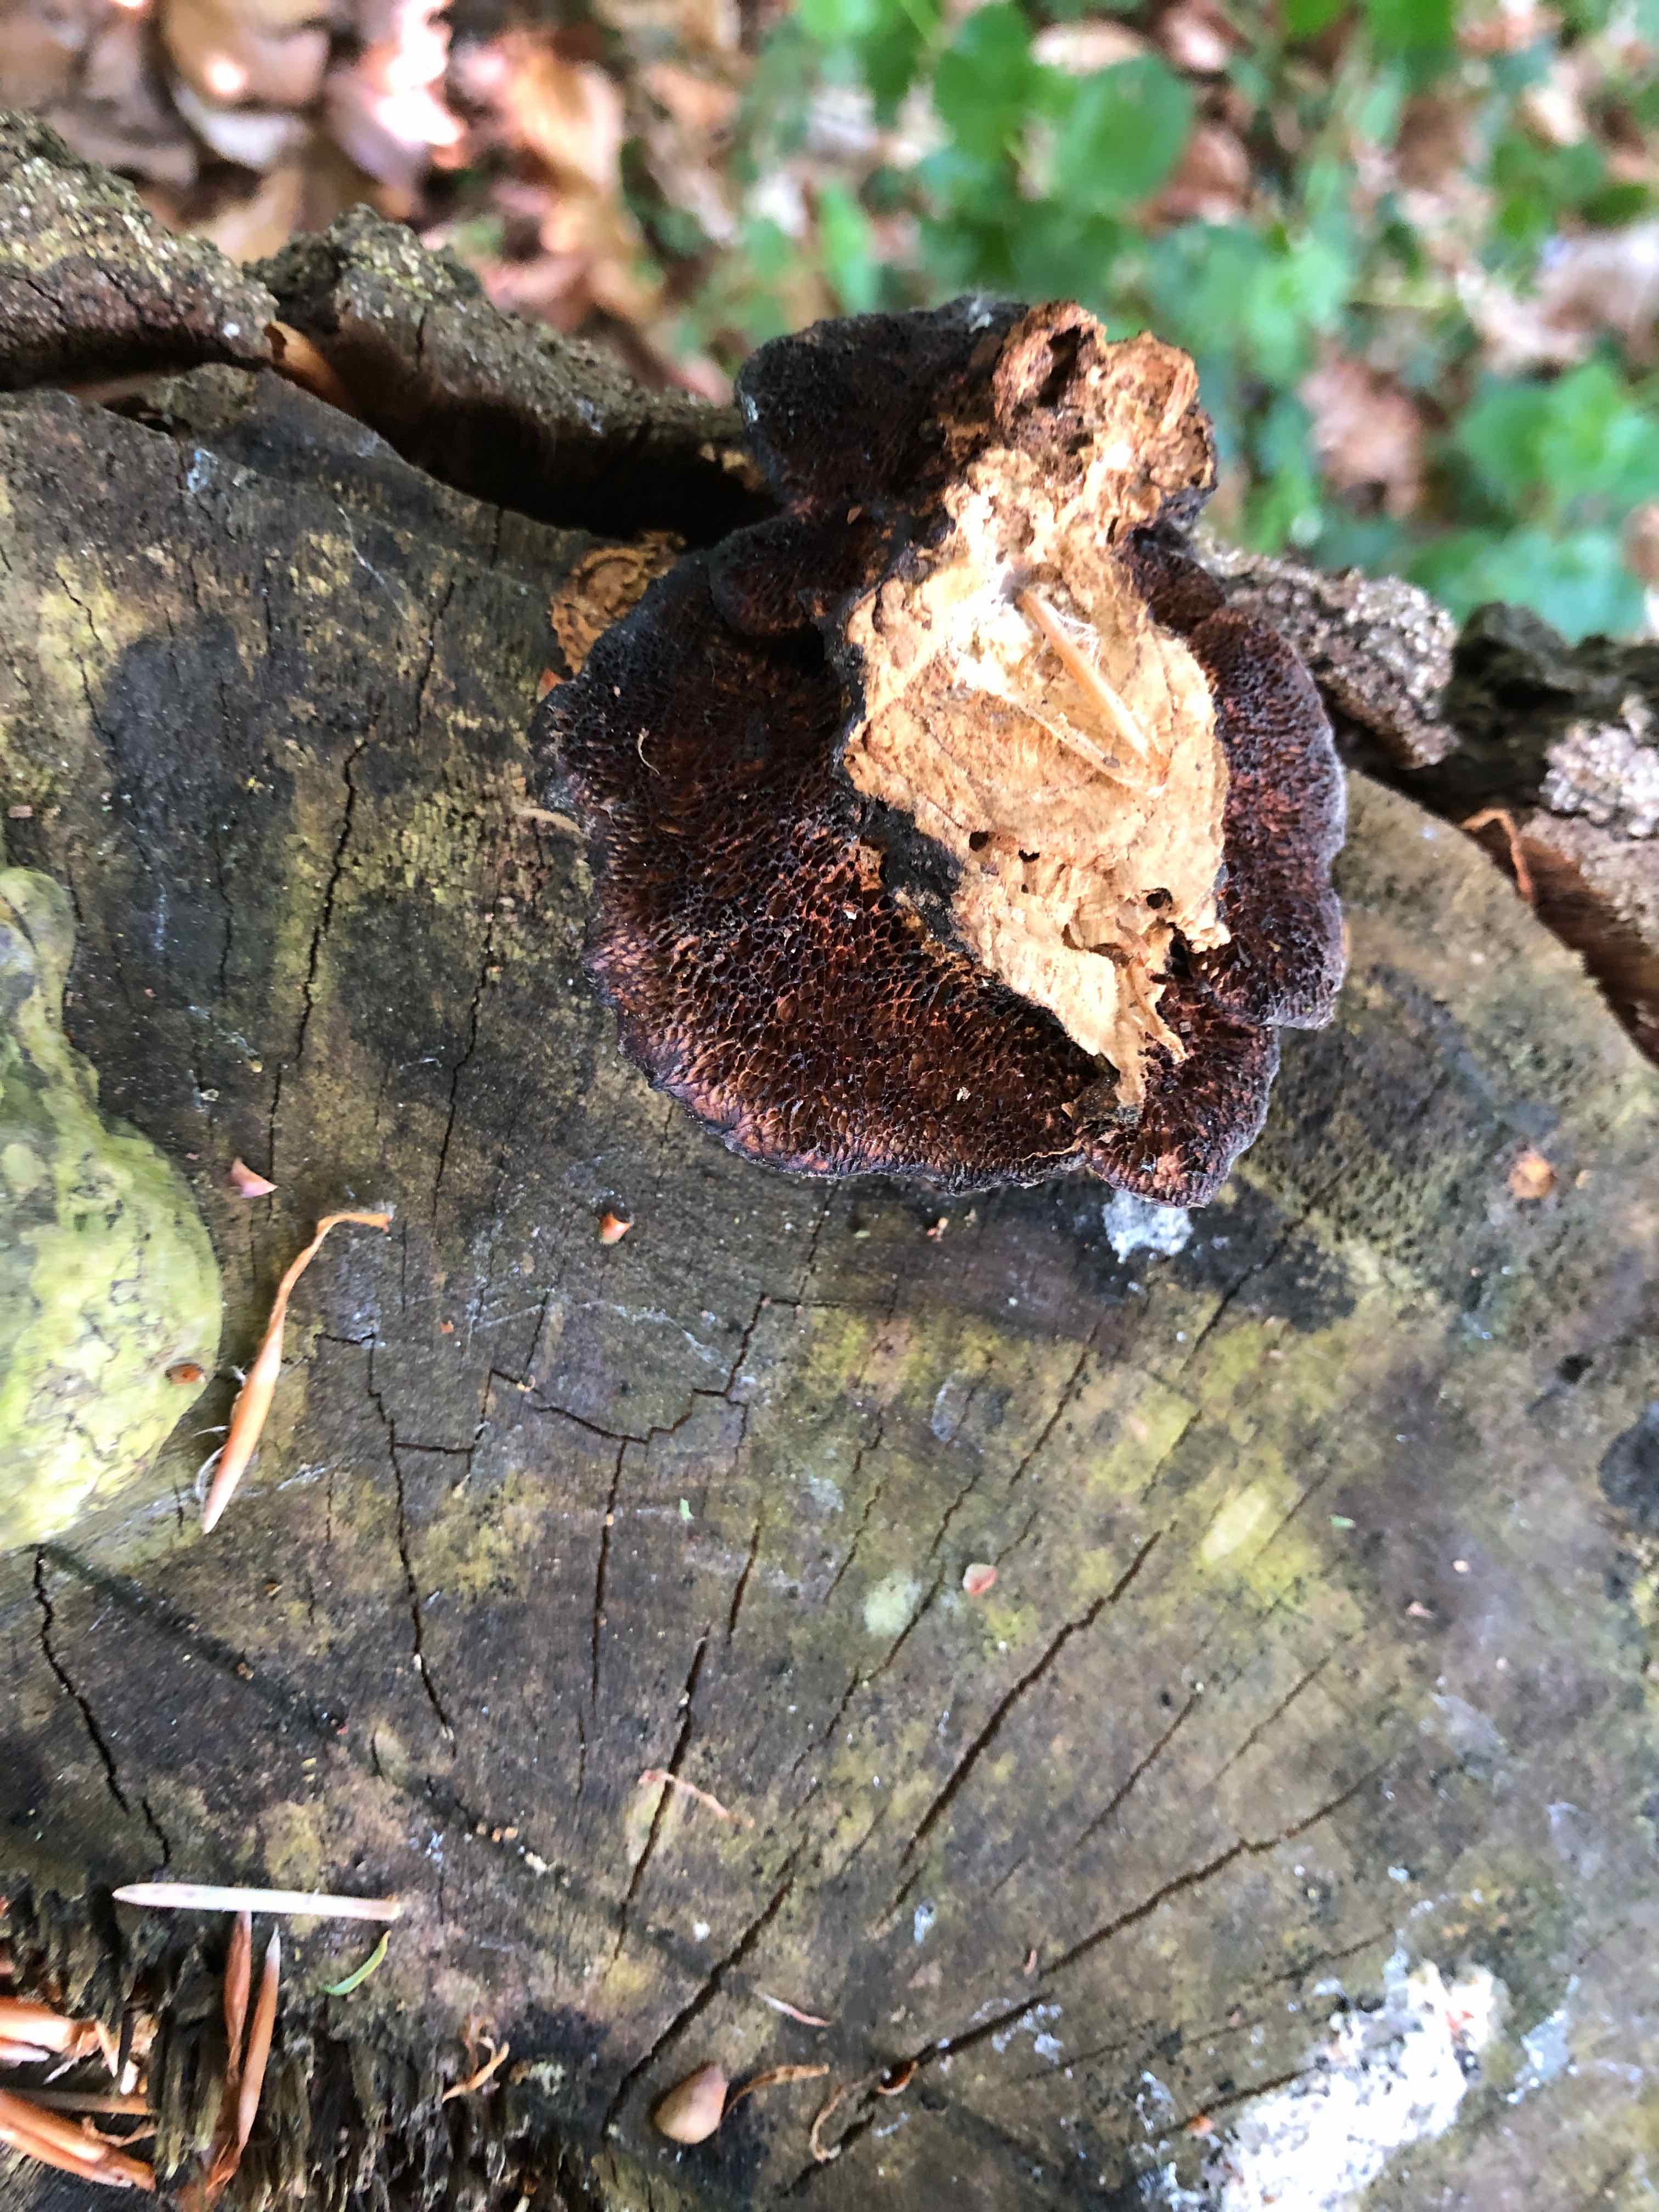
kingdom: Fungi
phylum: Basidiomycota
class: Agaricomycetes
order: Polyporales
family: Polyporaceae
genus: Daedaleopsis
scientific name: Daedaleopsis confragosa
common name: rødmende læderporesvamp
